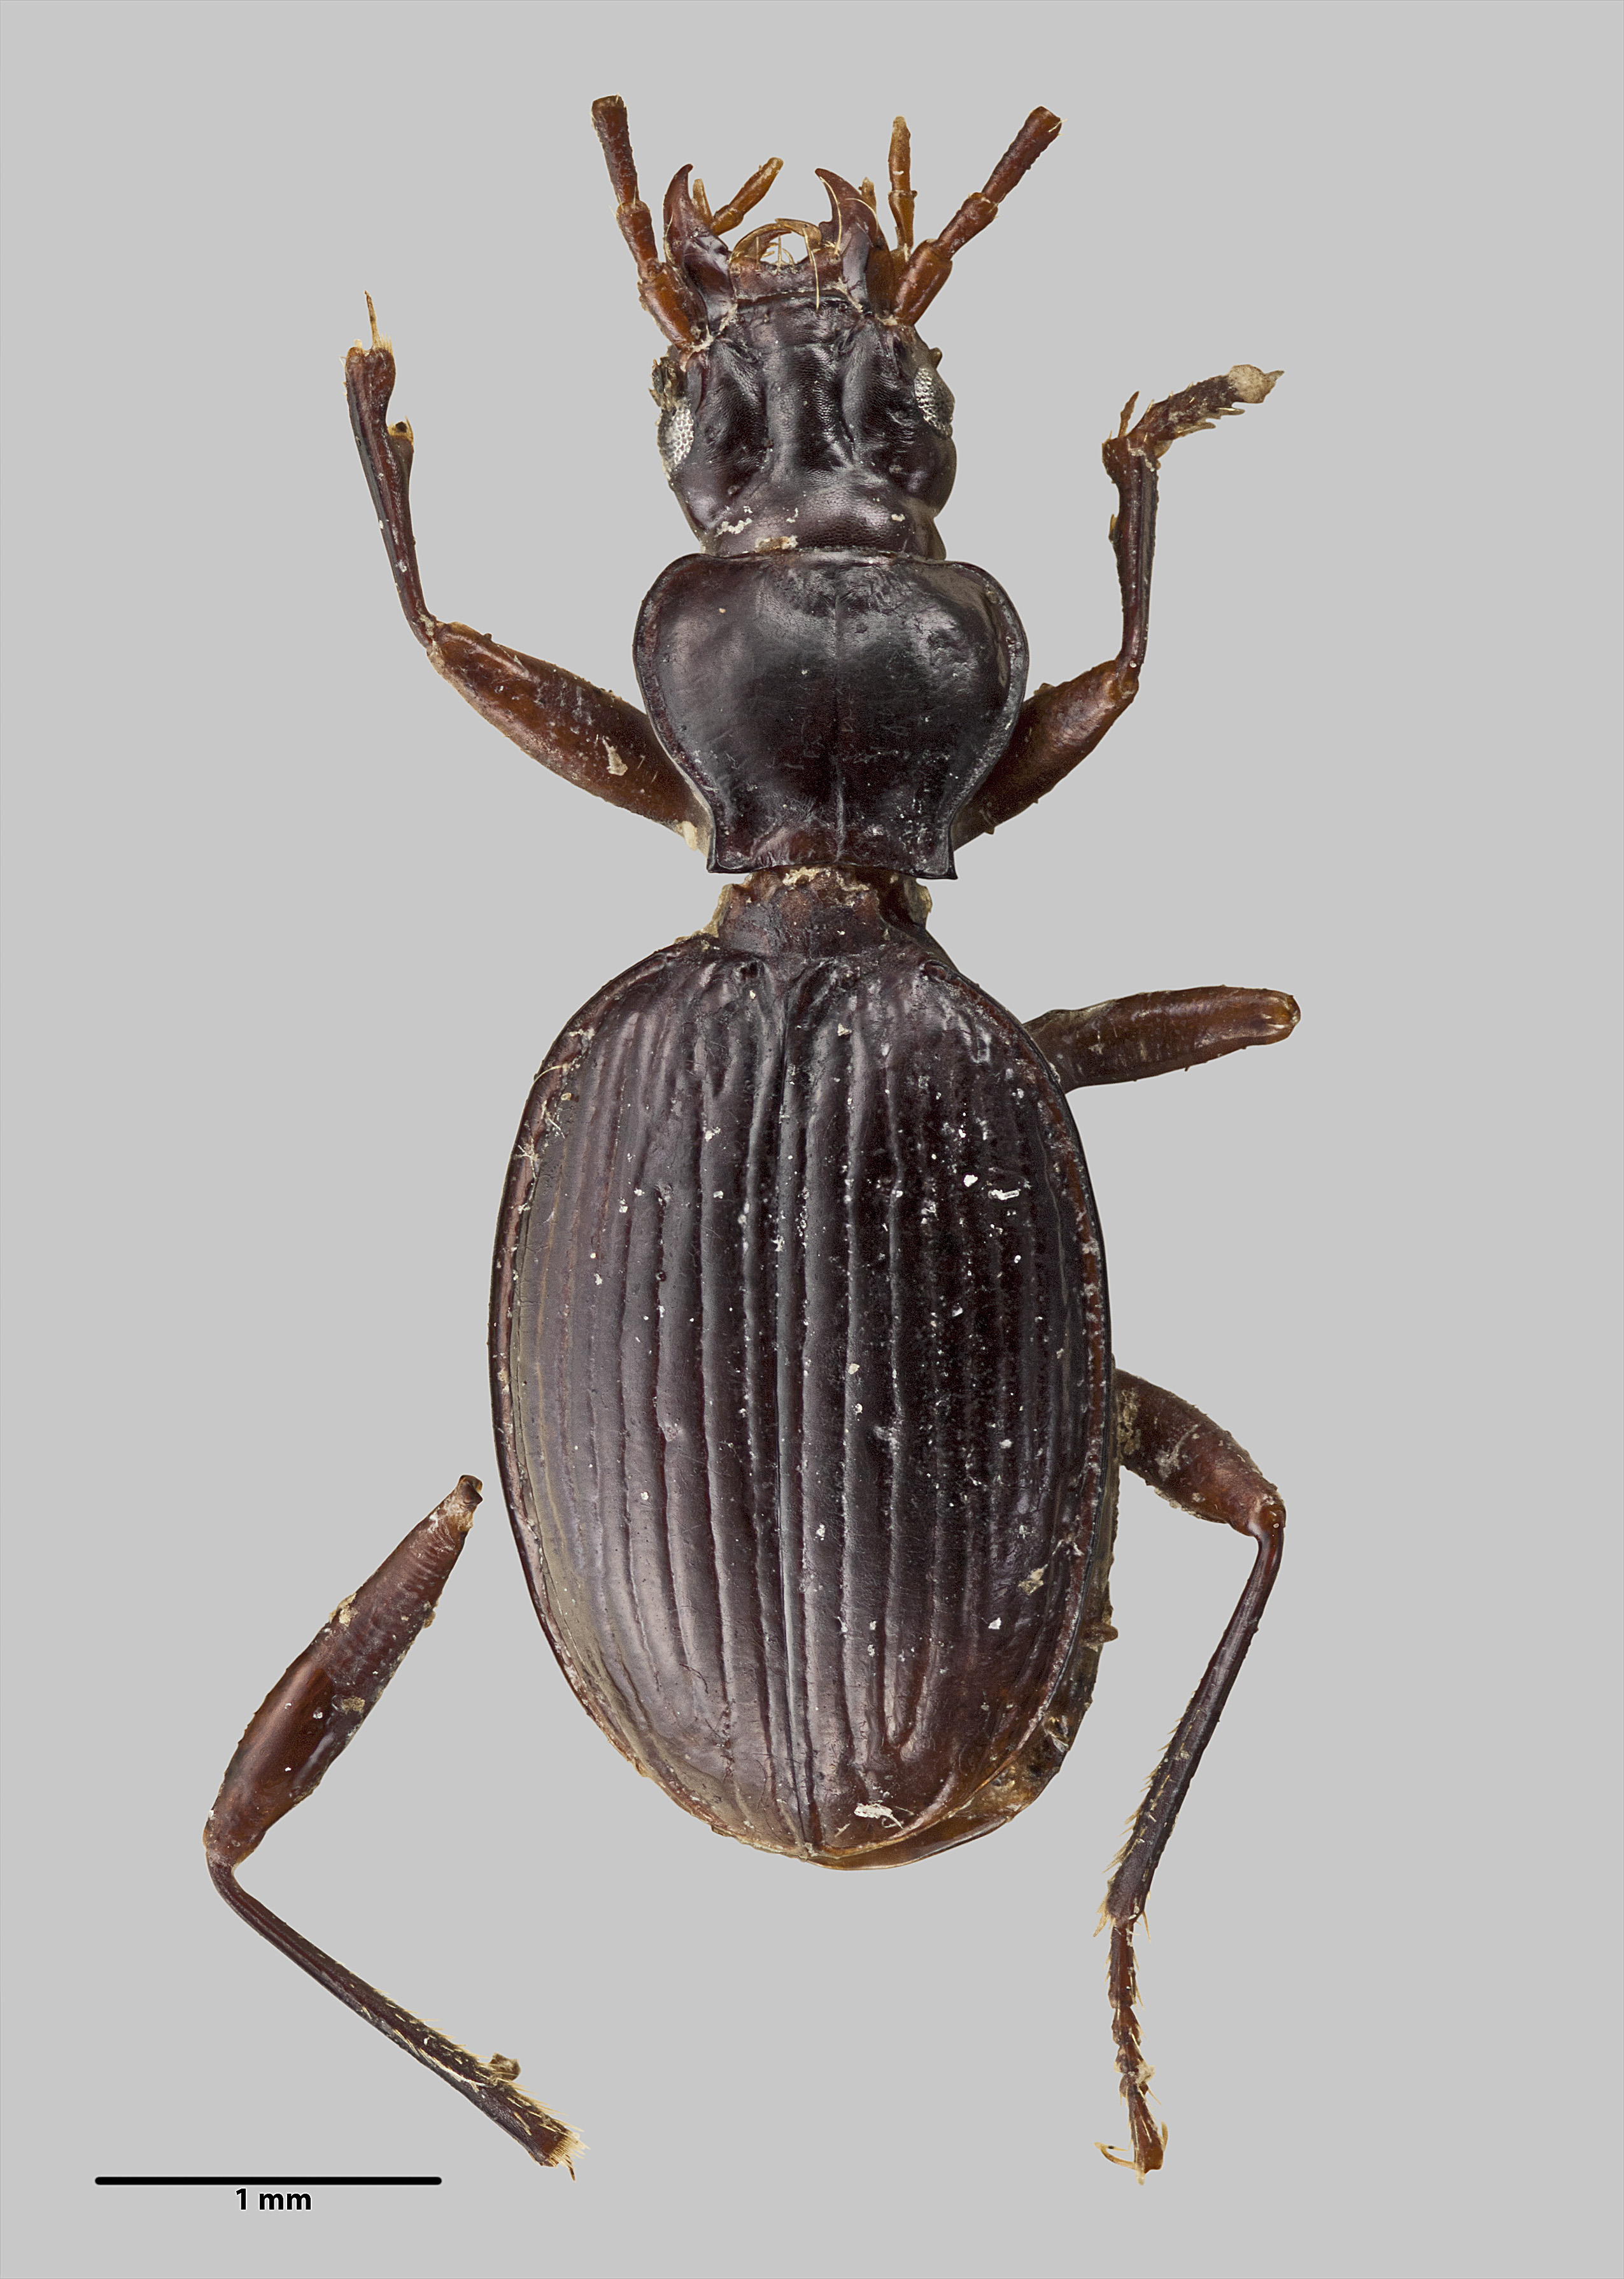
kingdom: Animalia
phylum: Arthropoda
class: Insecta
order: Coleoptera
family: Carabidae
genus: Duvaliomimus
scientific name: Duvaliomimus watti
